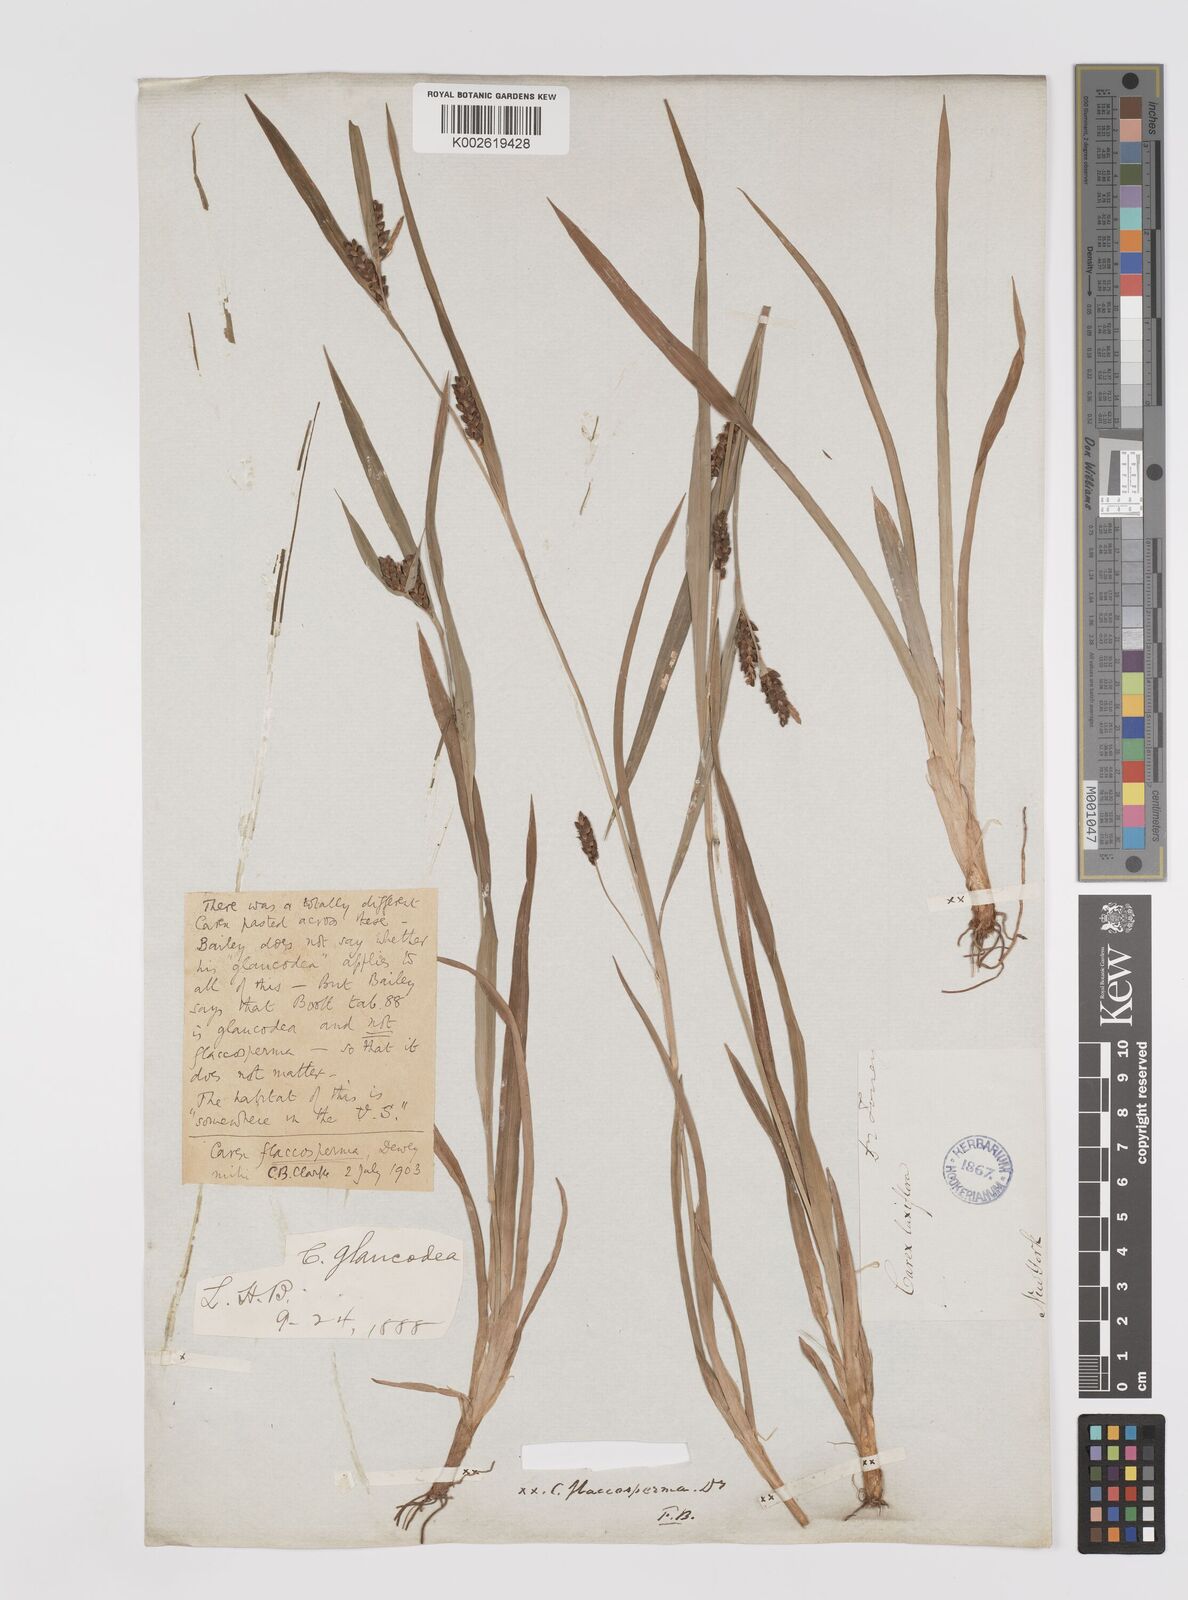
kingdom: Plantae
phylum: Tracheophyta
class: Liliopsida
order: Poales
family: Cyperaceae
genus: Carex
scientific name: Carex glaucodea
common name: Blue sedge
